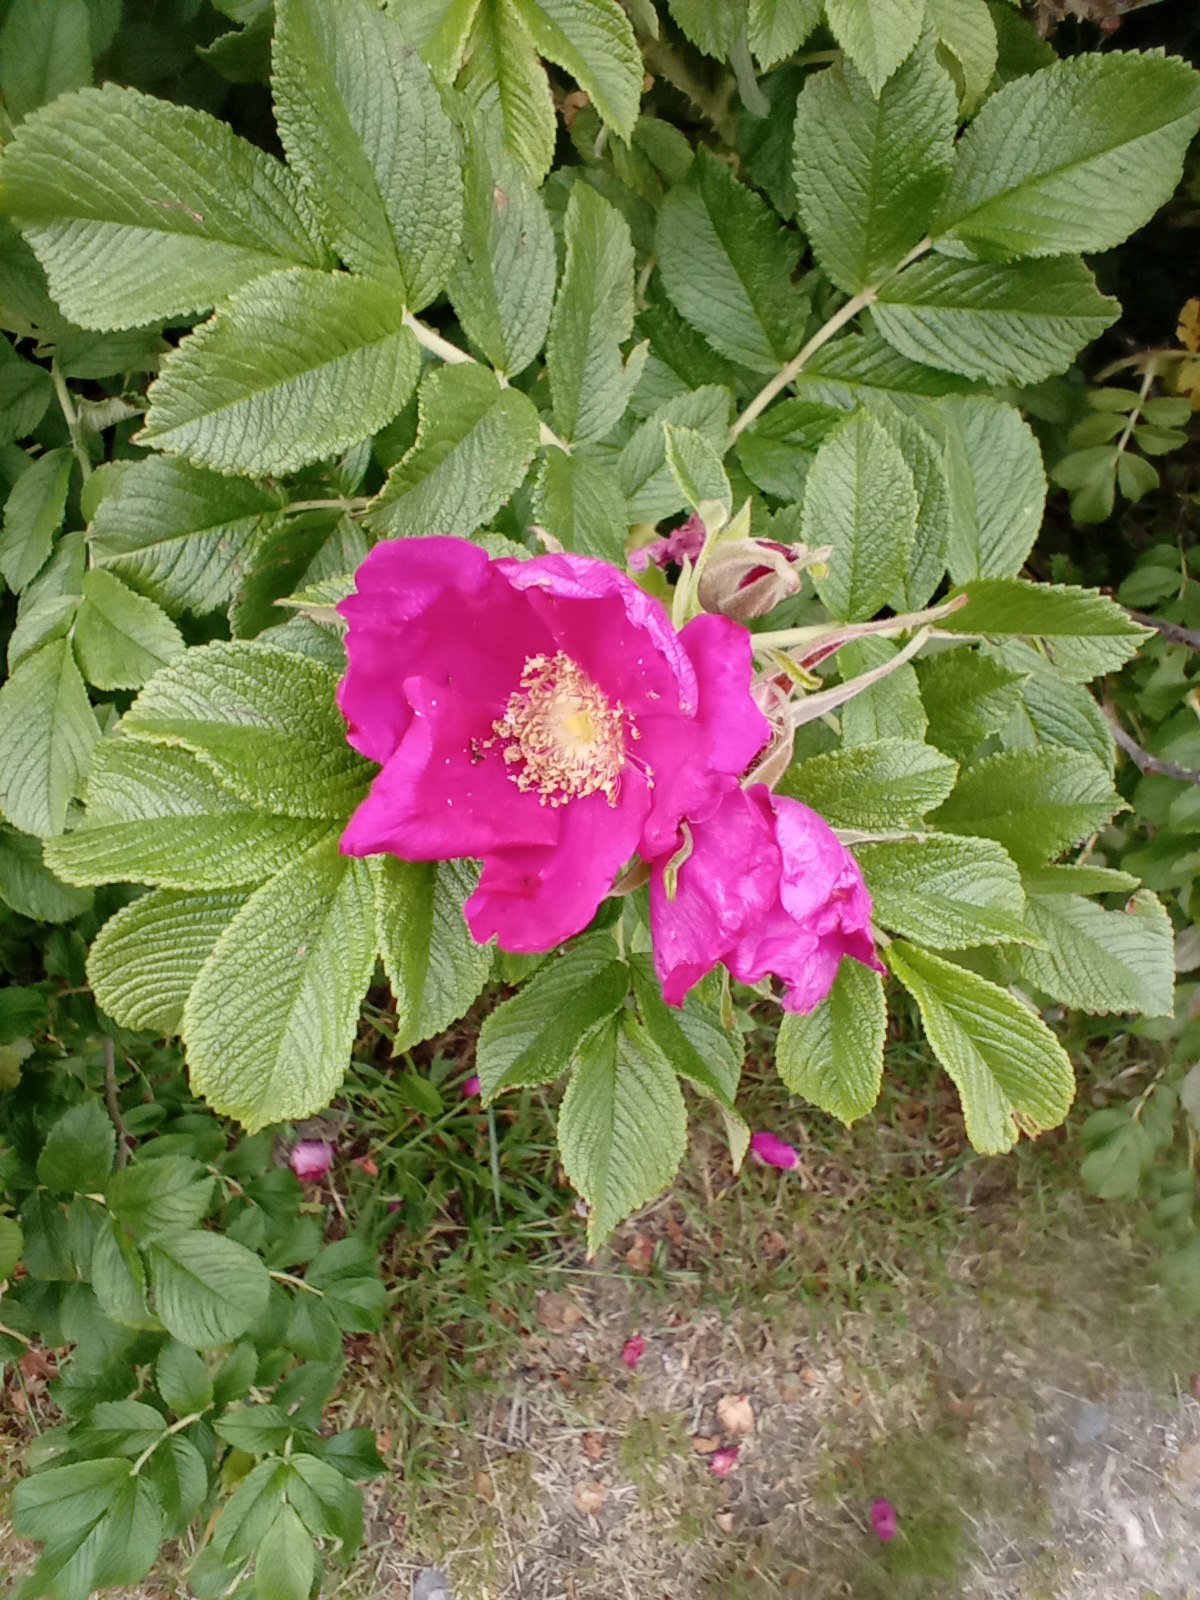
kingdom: Plantae
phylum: Tracheophyta
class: Magnoliopsida
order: Rosales
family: Rosaceae
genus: Rosa
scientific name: Rosa rugosa
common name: Rynket rose
